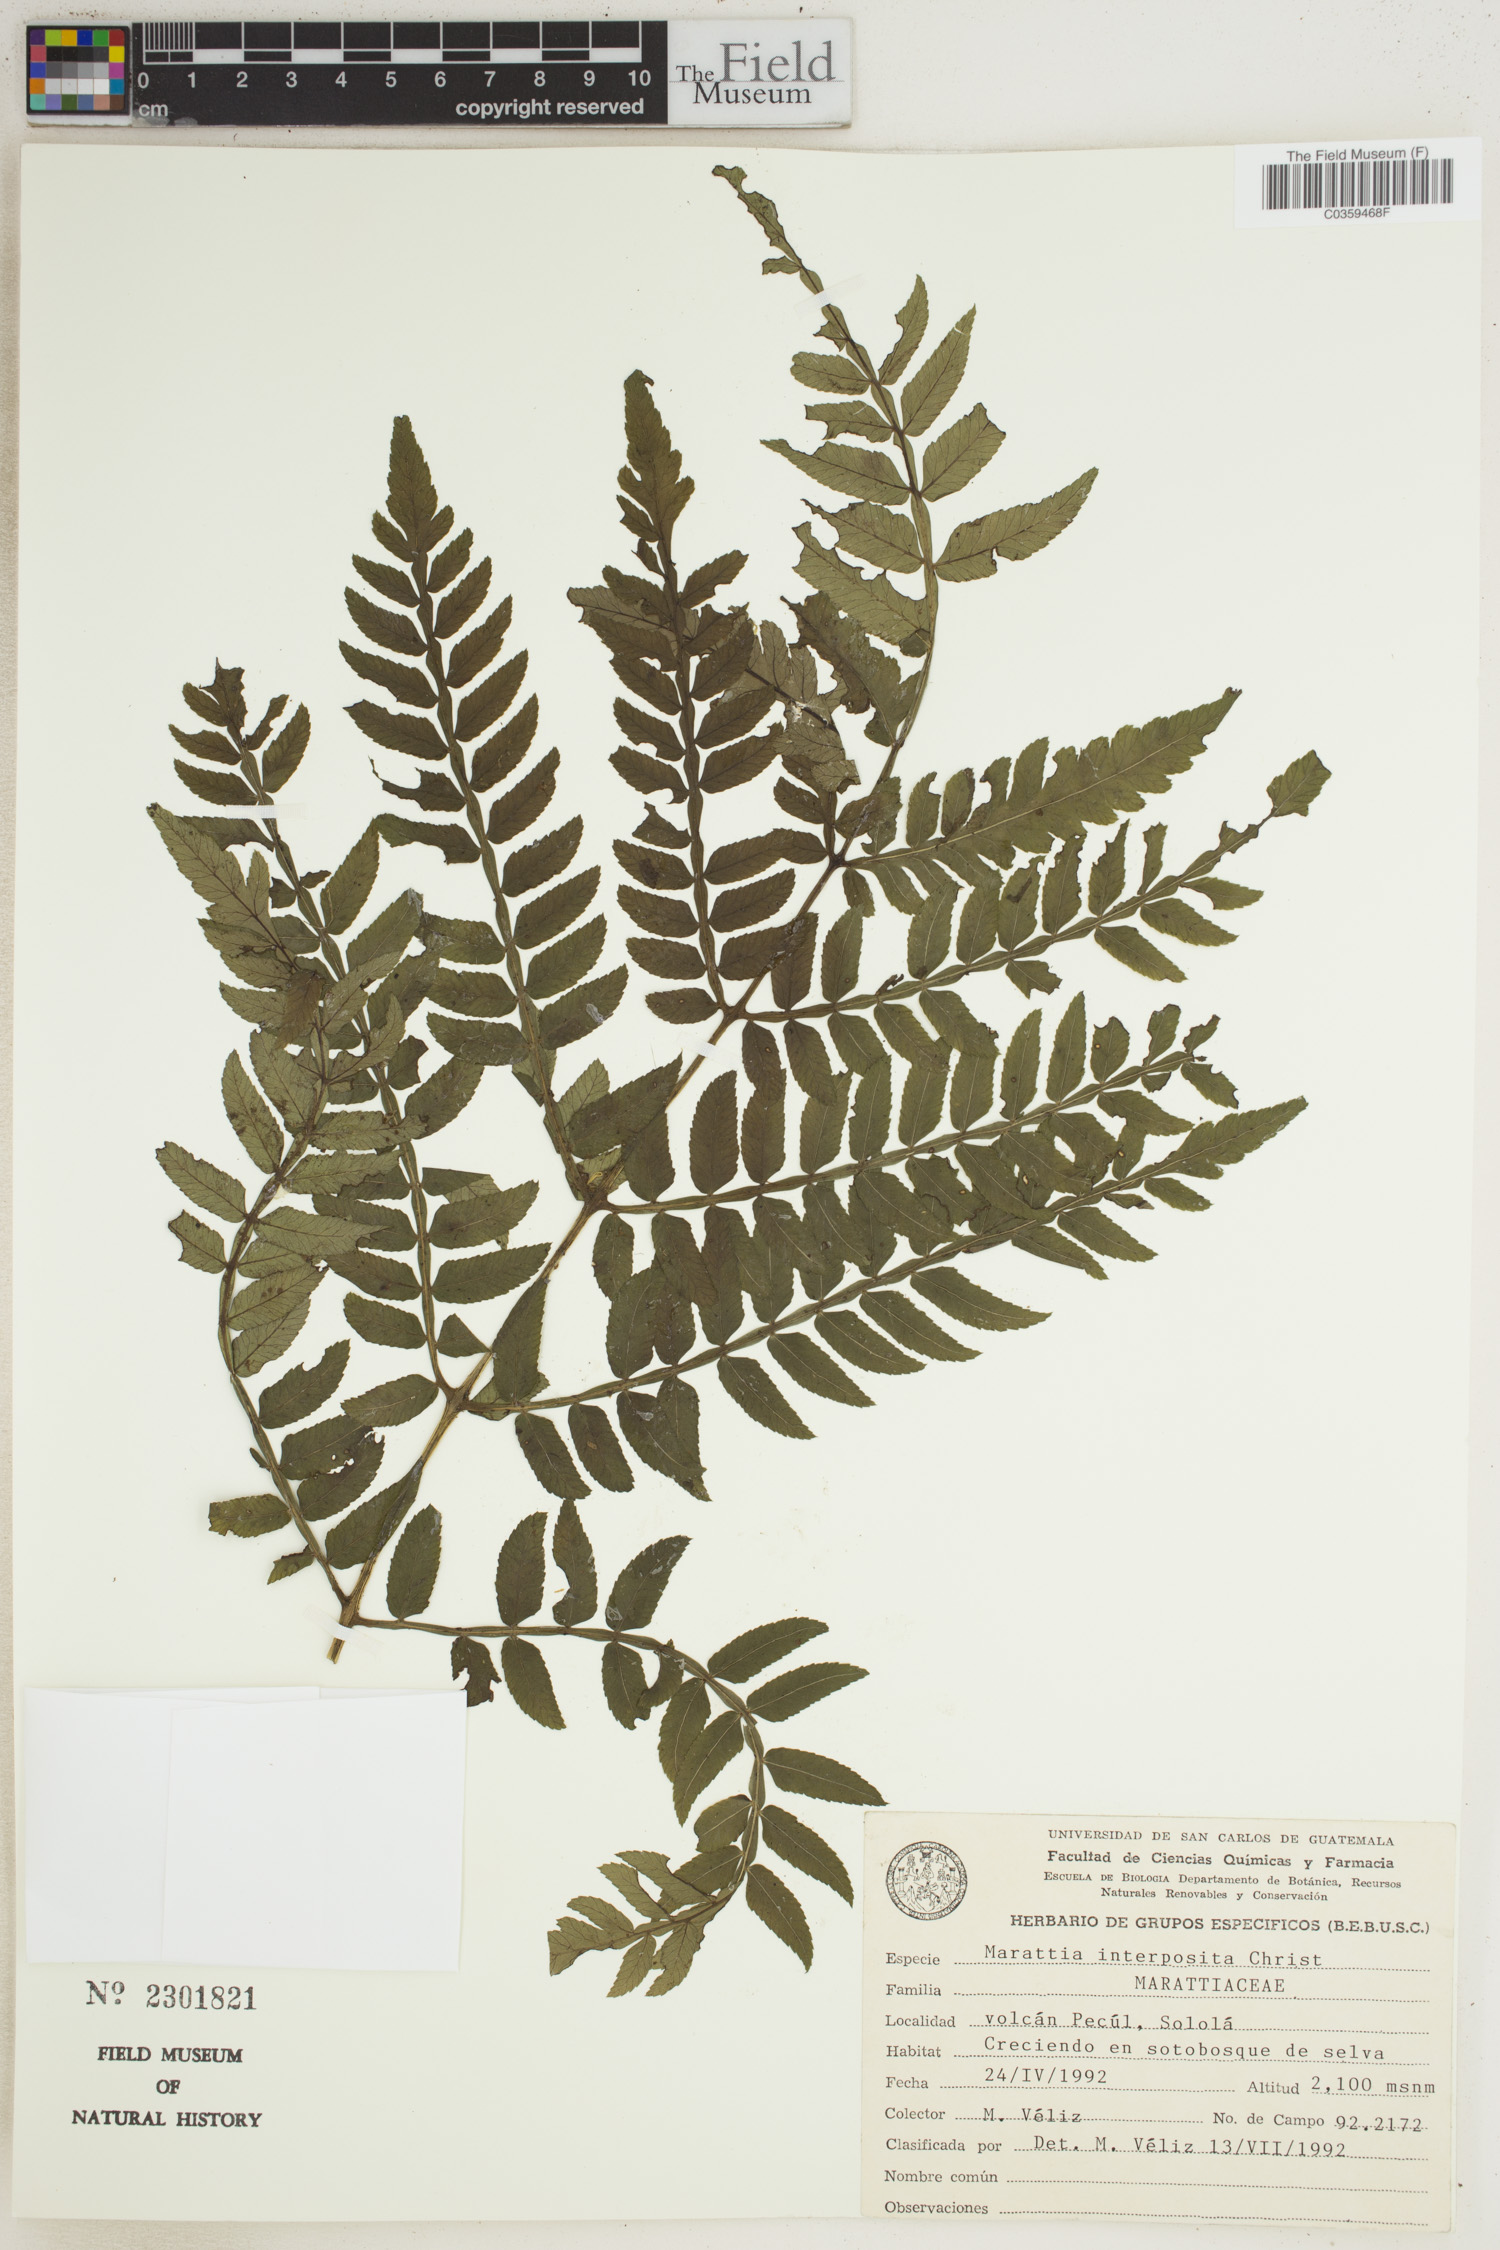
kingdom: Plantae
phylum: Tracheophyta
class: Polypodiopsida
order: Marattiales
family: Marattiaceae
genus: Marattia
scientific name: Marattia interposita
